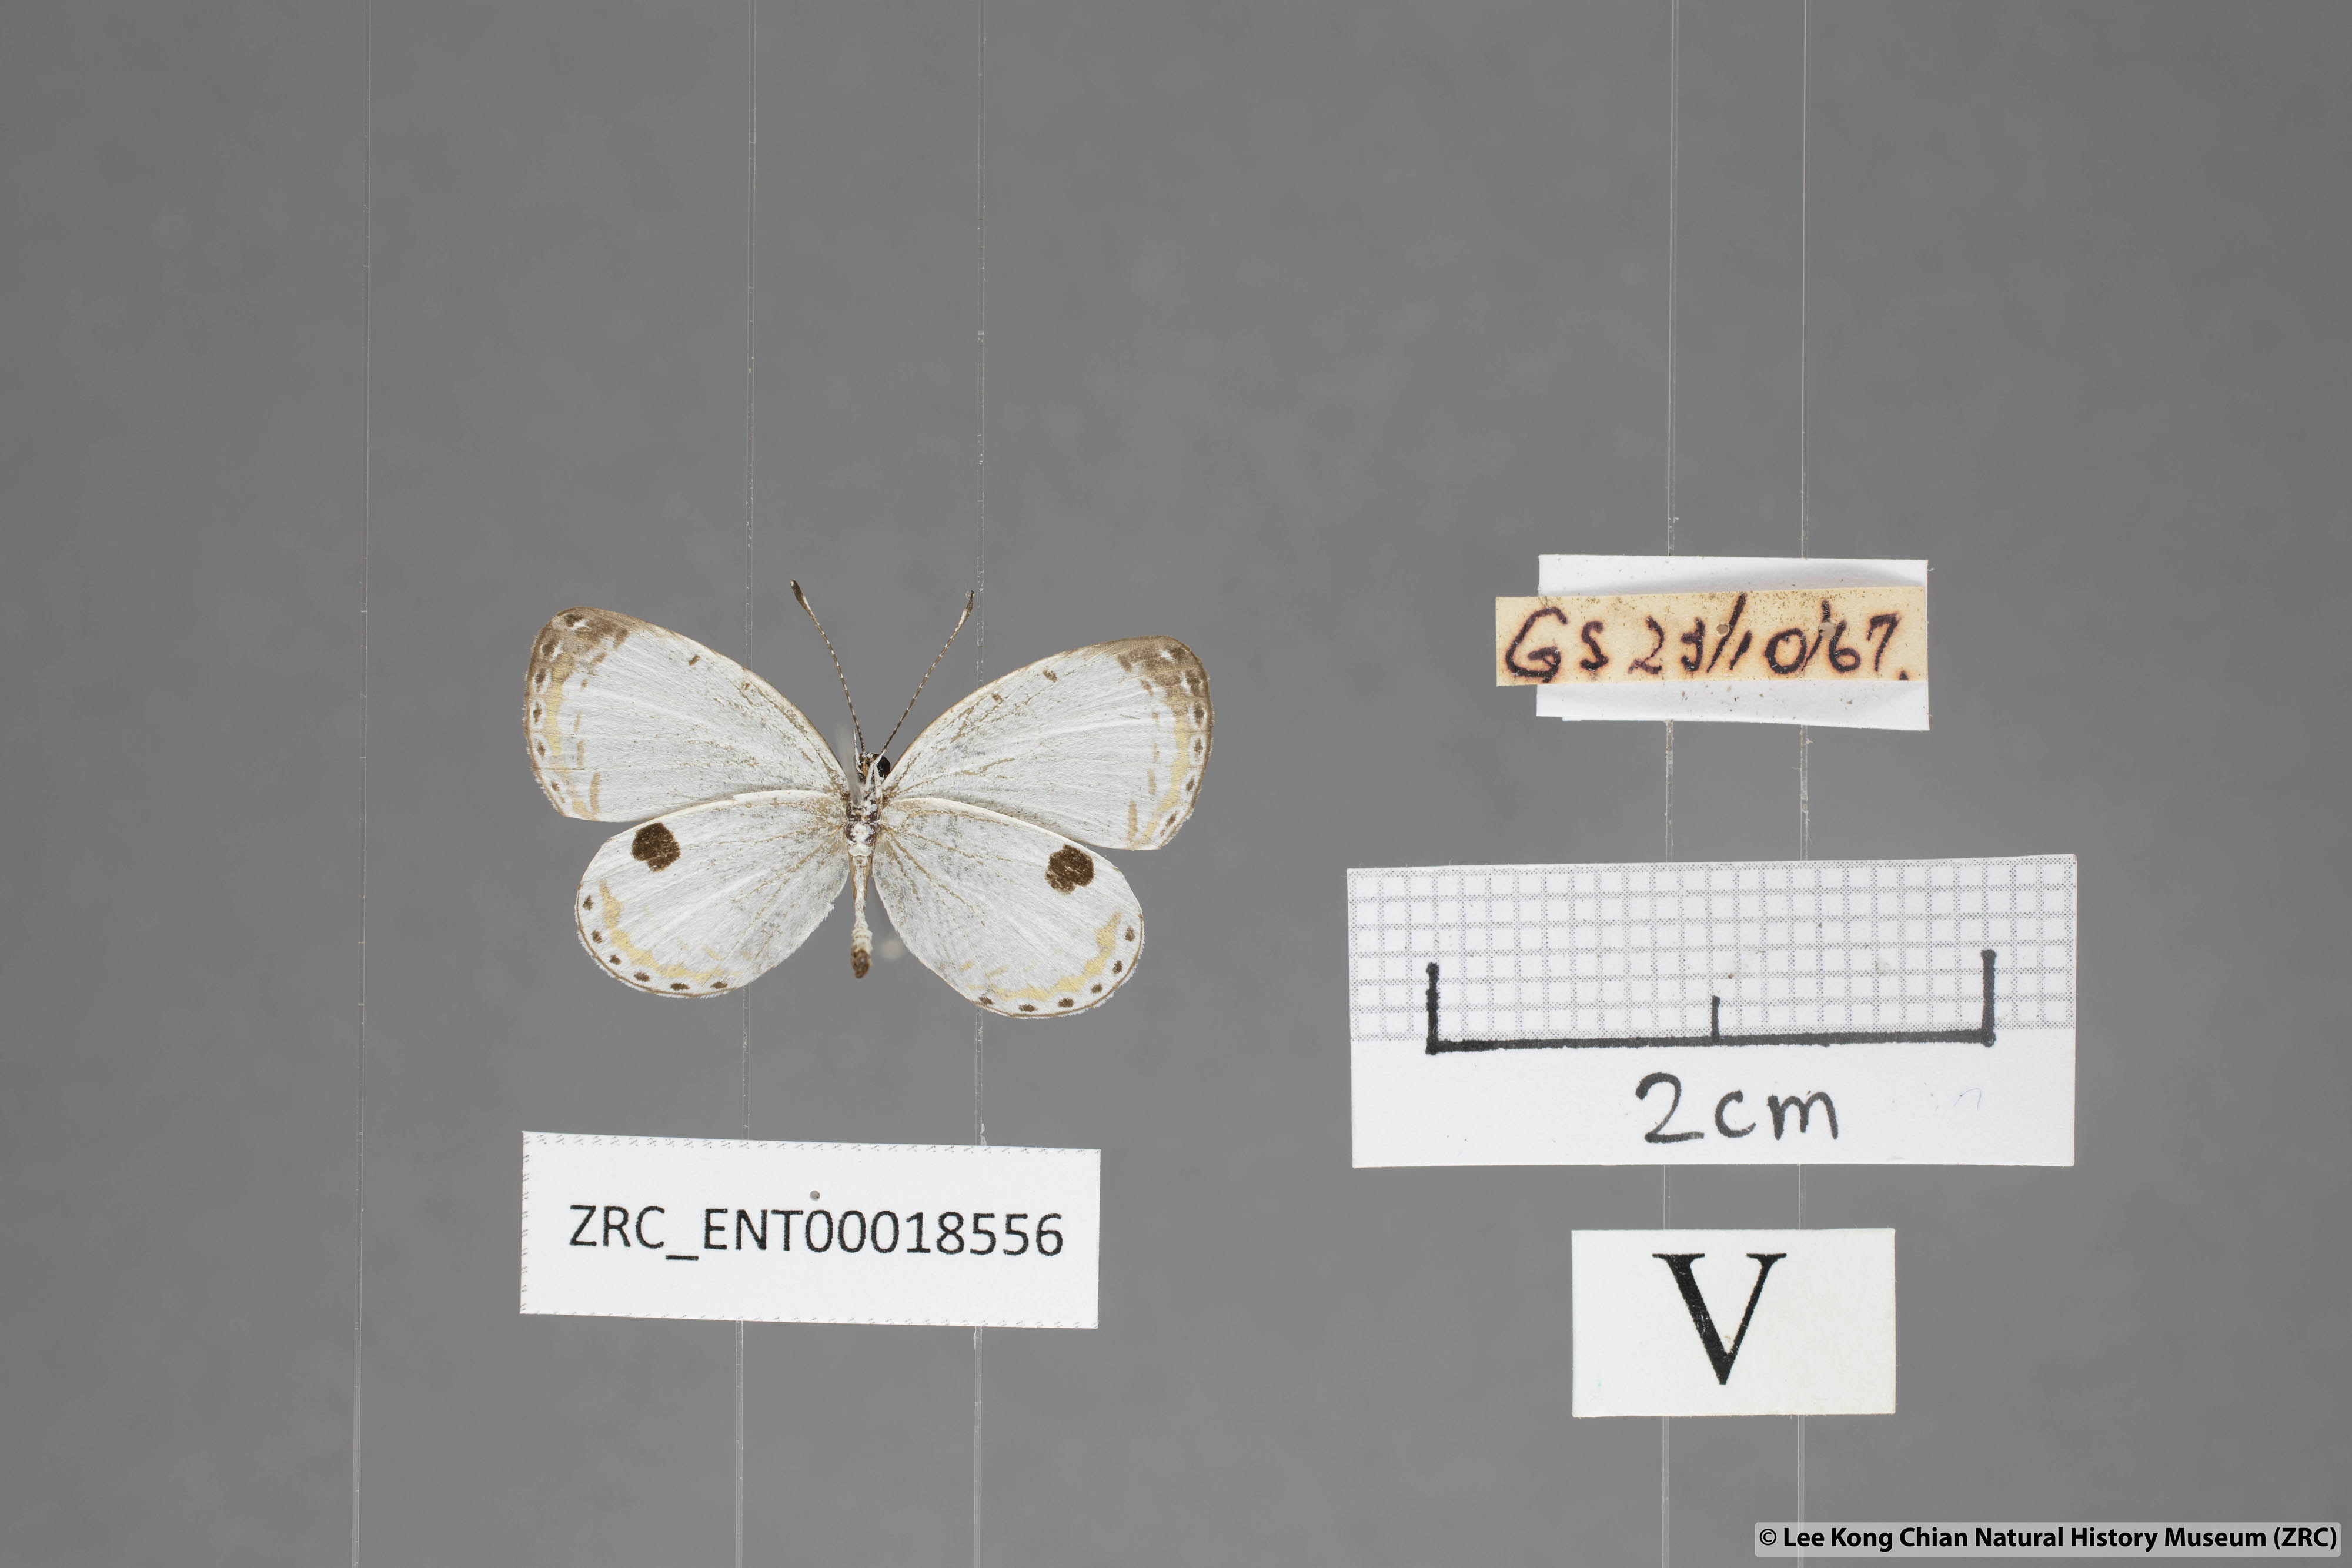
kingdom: Animalia
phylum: Arthropoda
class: Insecta
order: Lepidoptera
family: Lycaenidae
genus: Pithecops
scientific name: Pithecops corvus
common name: Forest quaker
